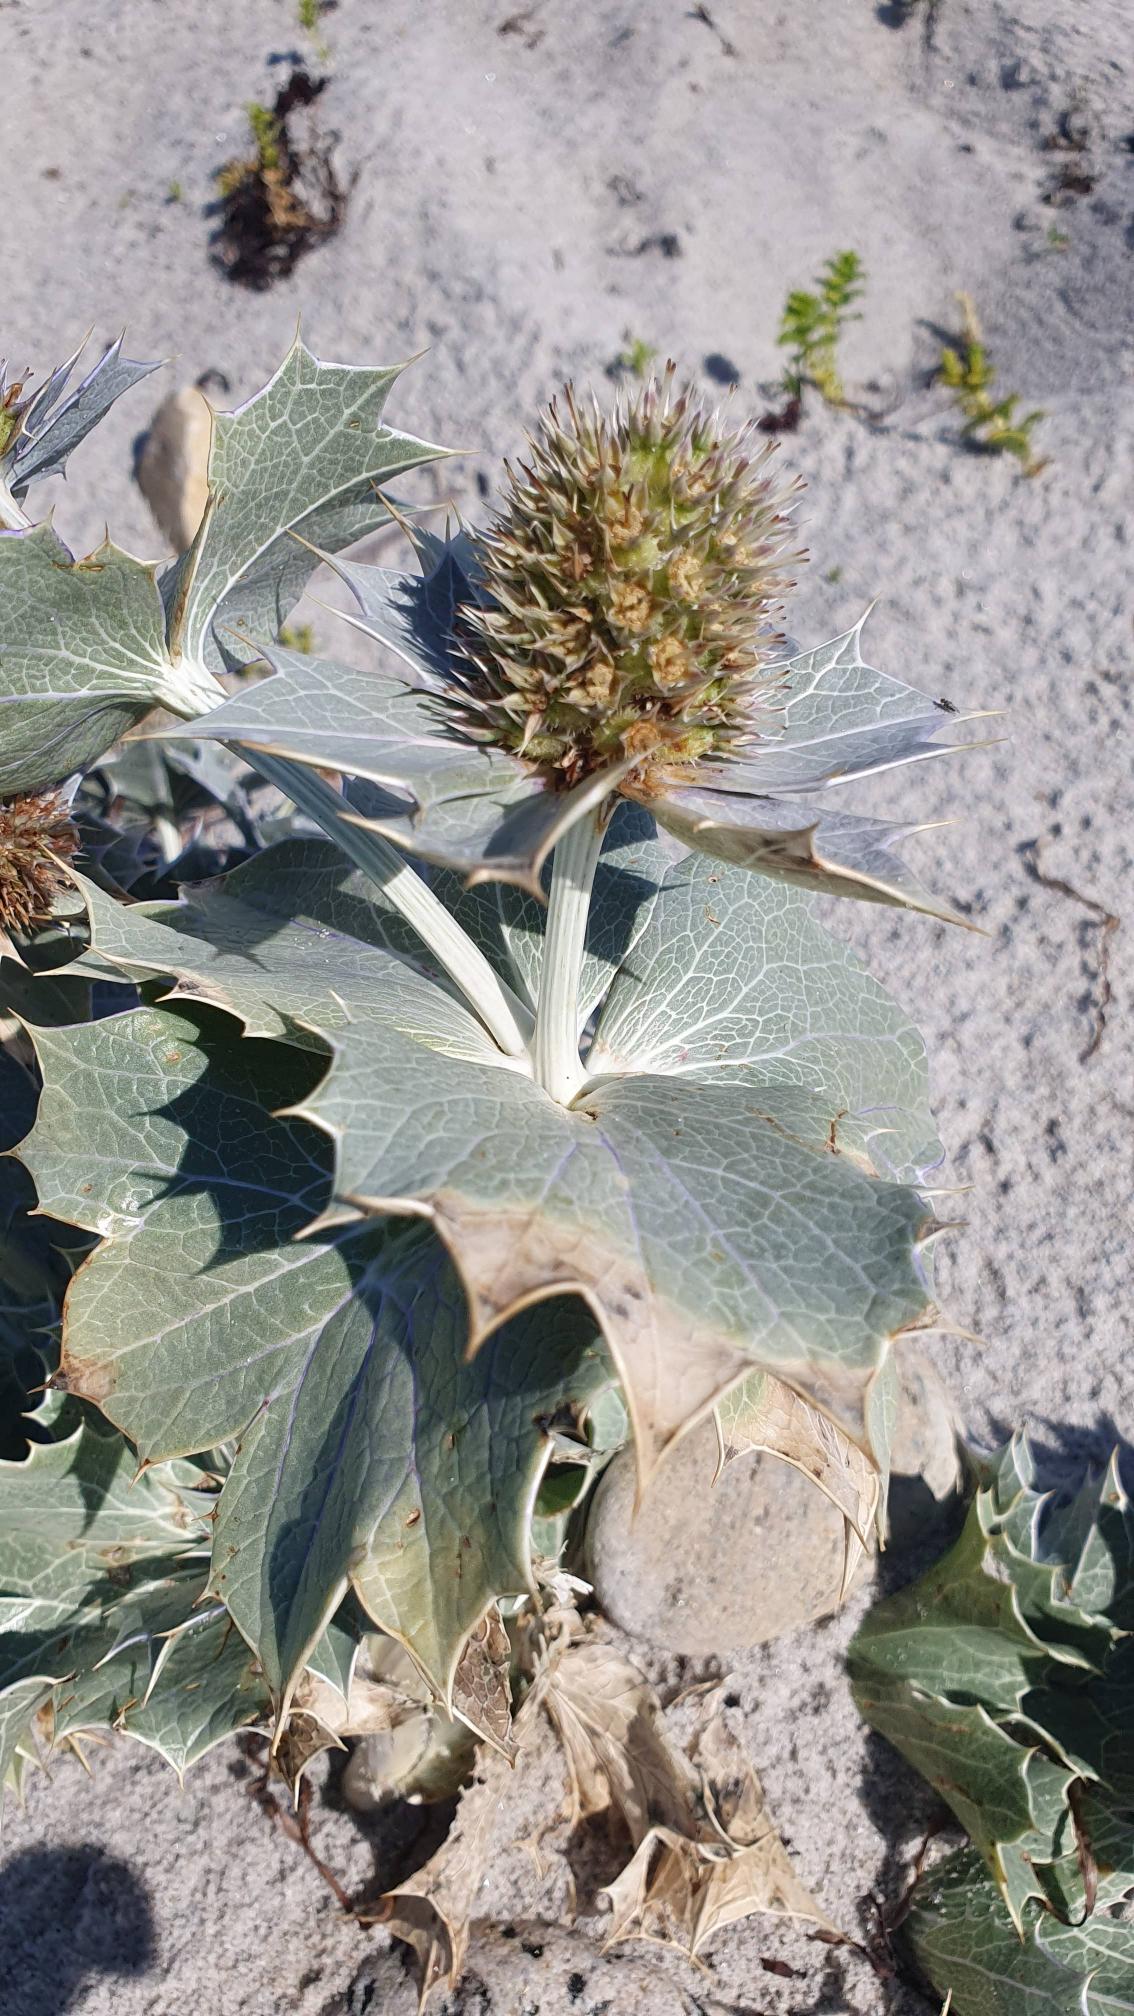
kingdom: Plantae
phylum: Tracheophyta
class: Magnoliopsida
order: Apiales
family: Apiaceae
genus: Eryngium
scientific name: Eryngium maritimum
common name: Strand-mandstro
